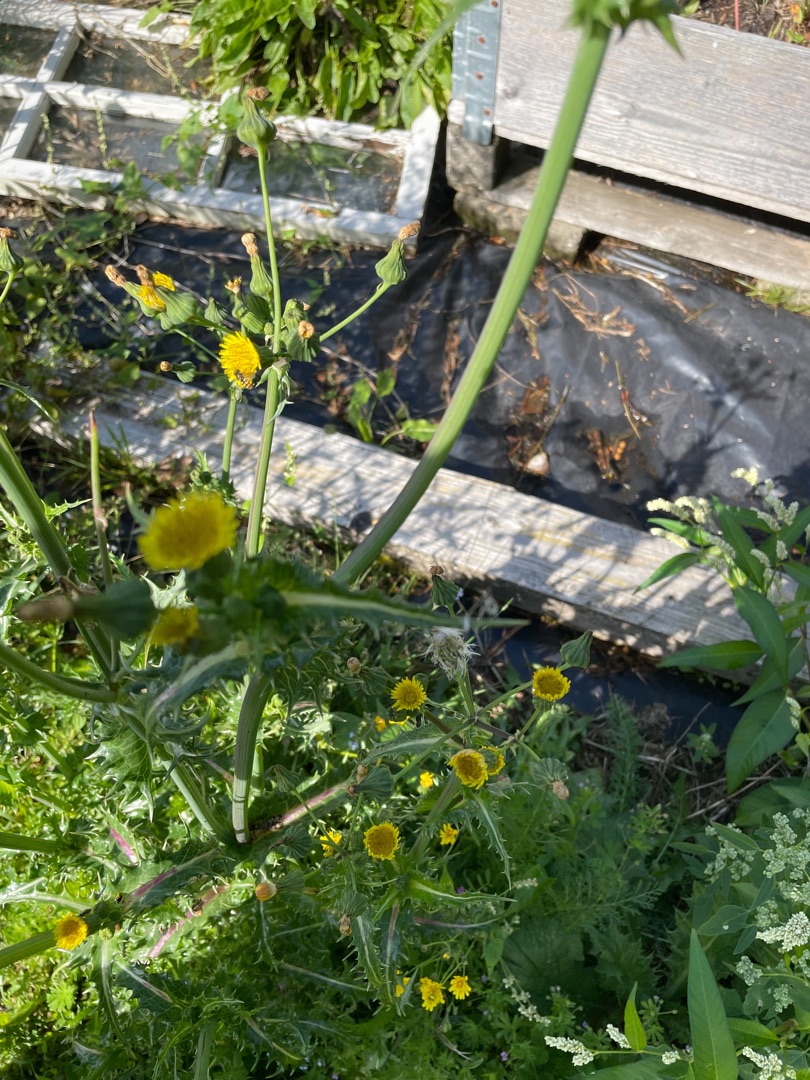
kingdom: Plantae
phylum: Tracheophyta
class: Magnoliopsida
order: Asterales
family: Asteraceae
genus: Sonchus
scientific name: Sonchus asper
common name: Ru svinemælk
